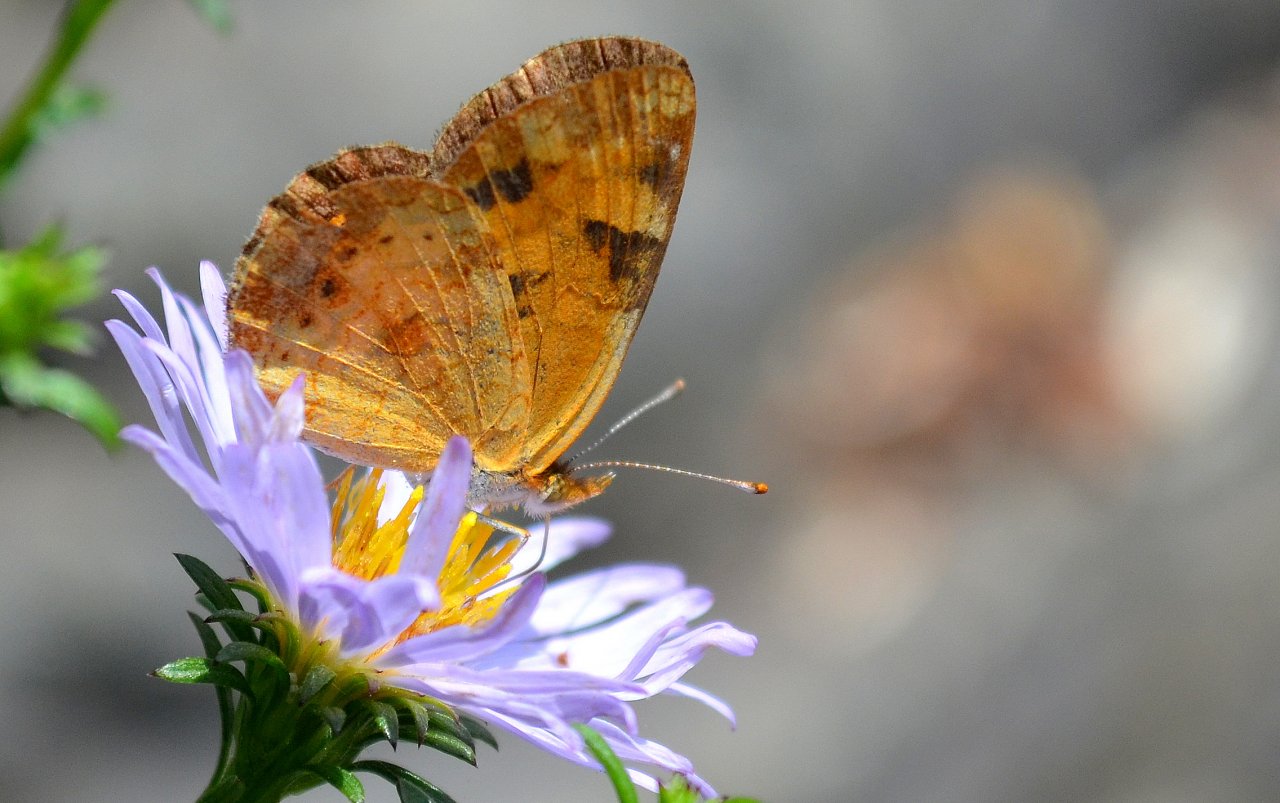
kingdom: Animalia
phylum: Arthropoda
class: Insecta
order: Lepidoptera
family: Nymphalidae
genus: Phyciodes
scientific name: Phyciodes tharos
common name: Northern Crescent
